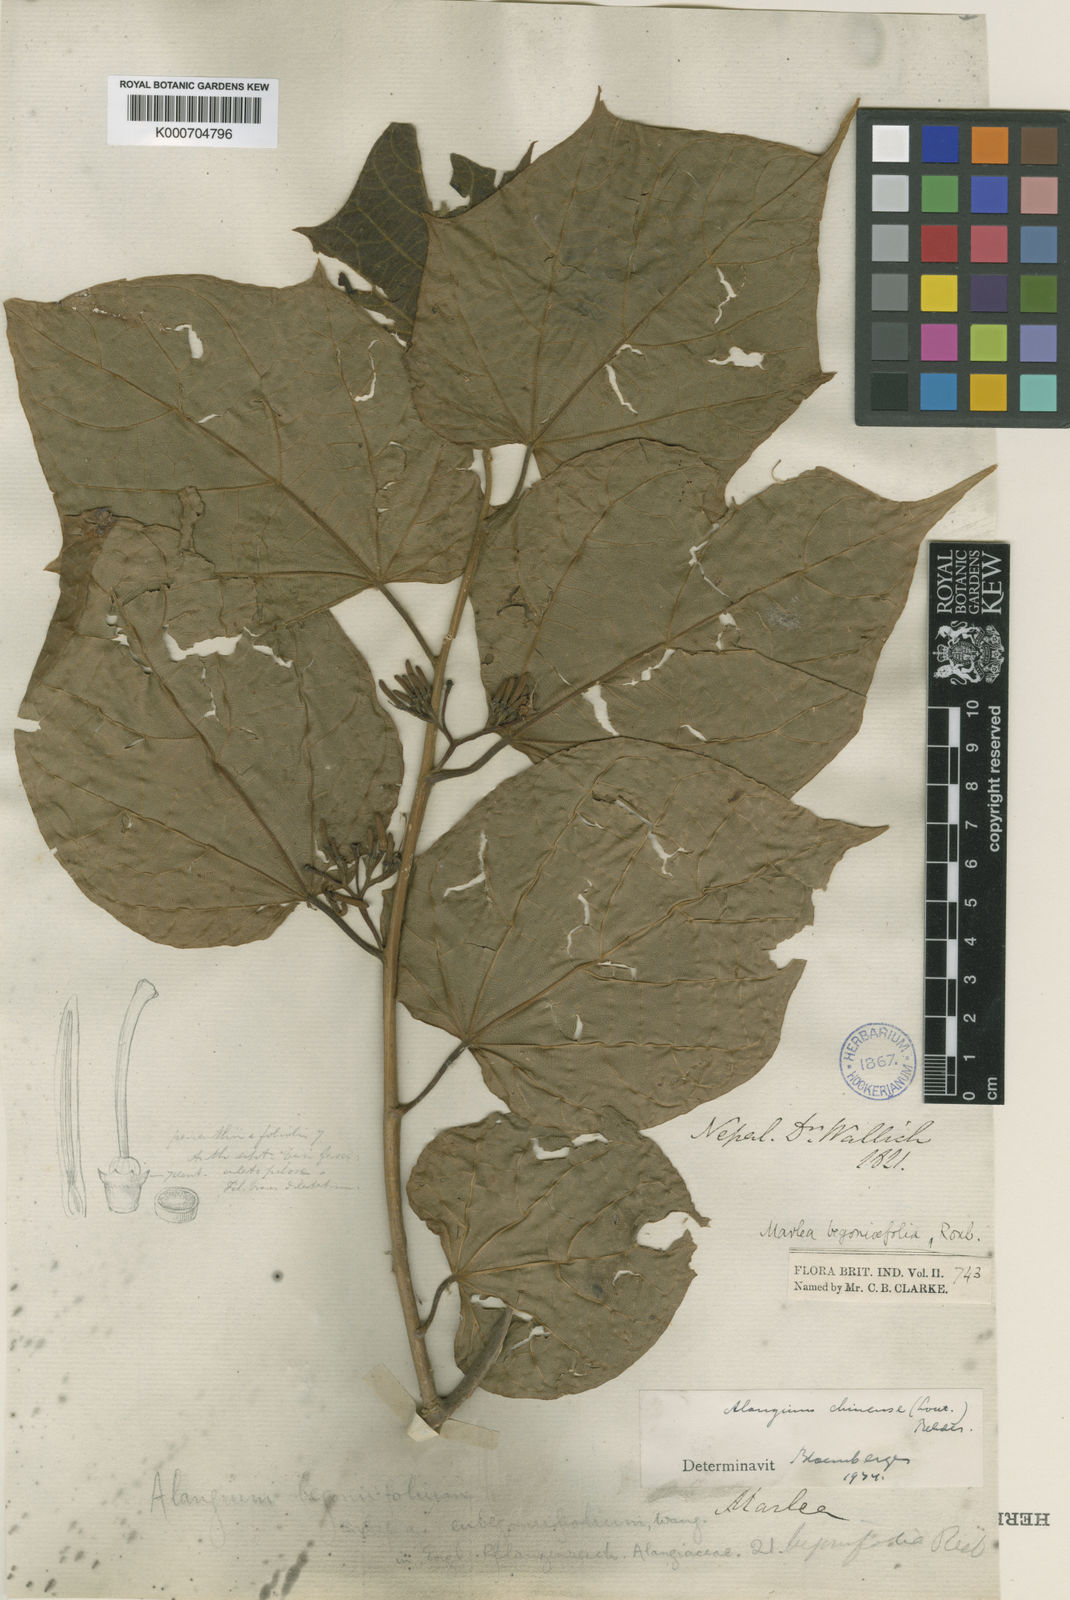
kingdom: Plantae
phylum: Tracheophyta
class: Magnoliopsida
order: Cornales
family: Cornaceae
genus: Alangium
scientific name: Alangium
